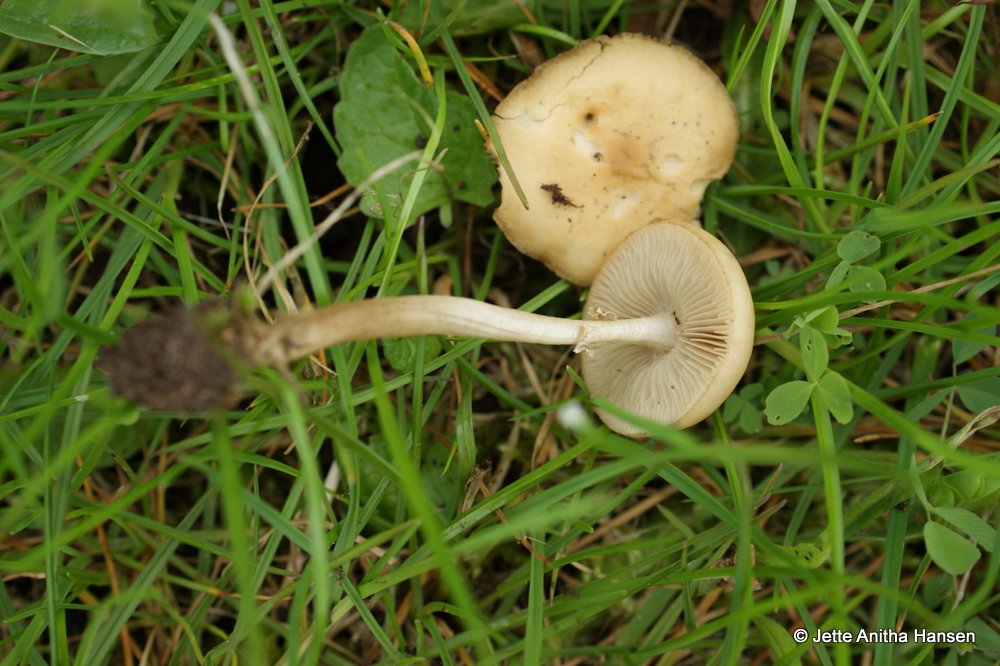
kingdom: Fungi
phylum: Basidiomycota
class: Agaricomycetes
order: Agaricales
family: Strophariaceae
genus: Agrocybe
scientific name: Agrocybe praecox
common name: tidlig agerhat
